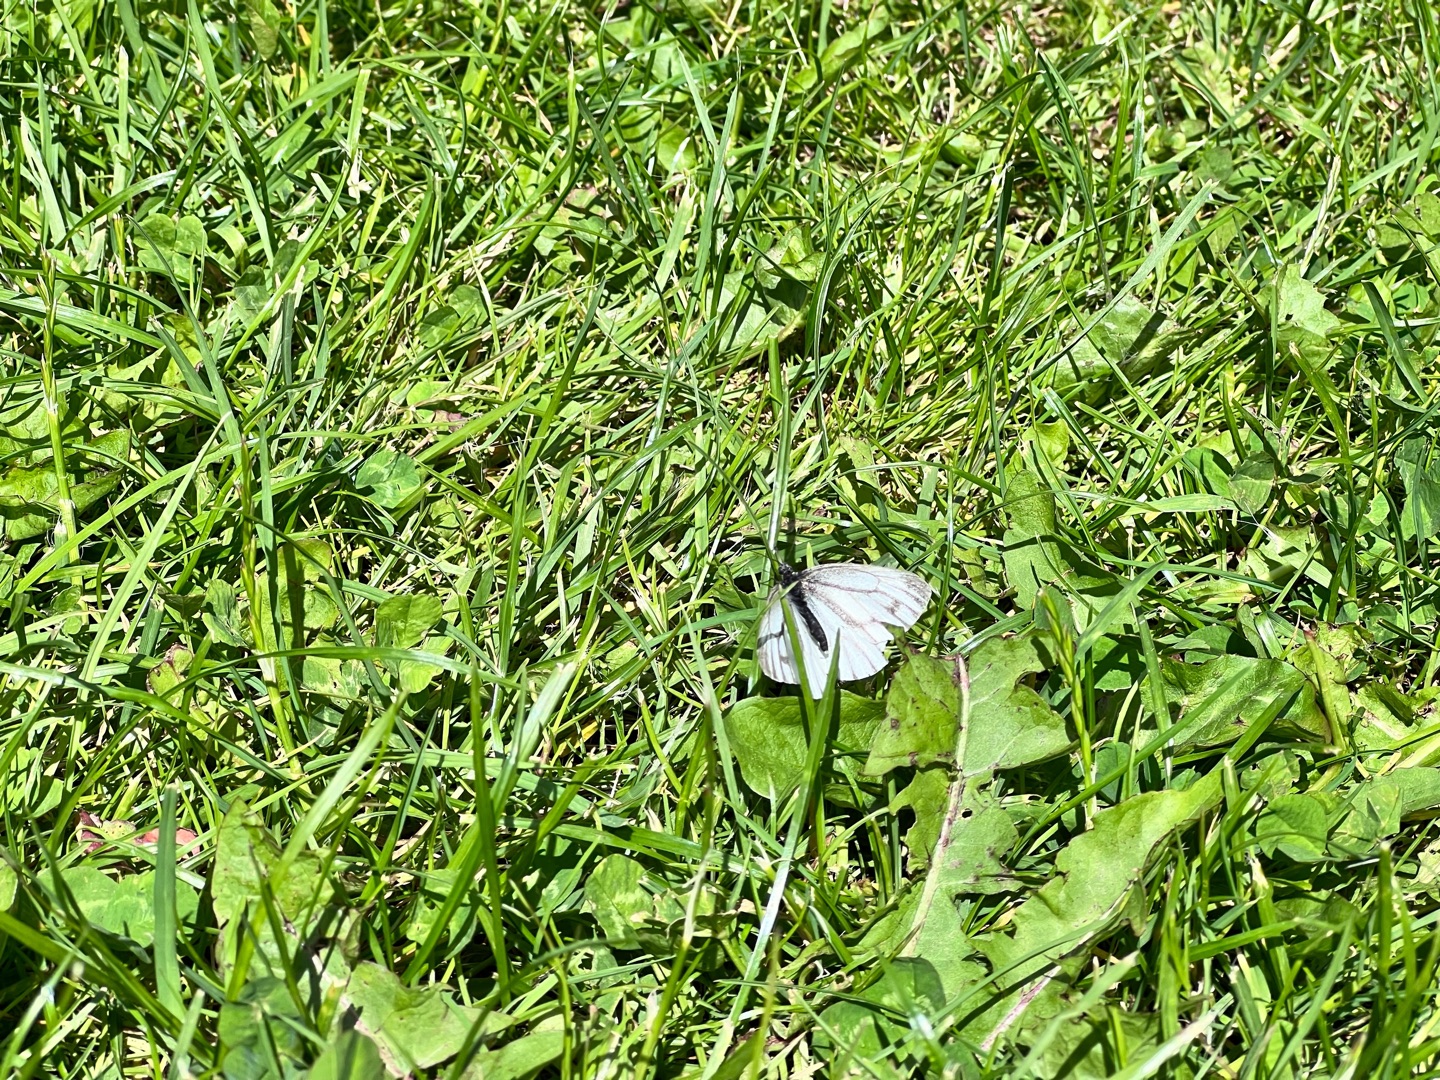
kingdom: Animalia
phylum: Arthropoda
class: Insecta
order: Lepidoptera
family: Pieridae
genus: Pieris
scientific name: Pieris napi
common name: Grønåret kålsommerfugl
